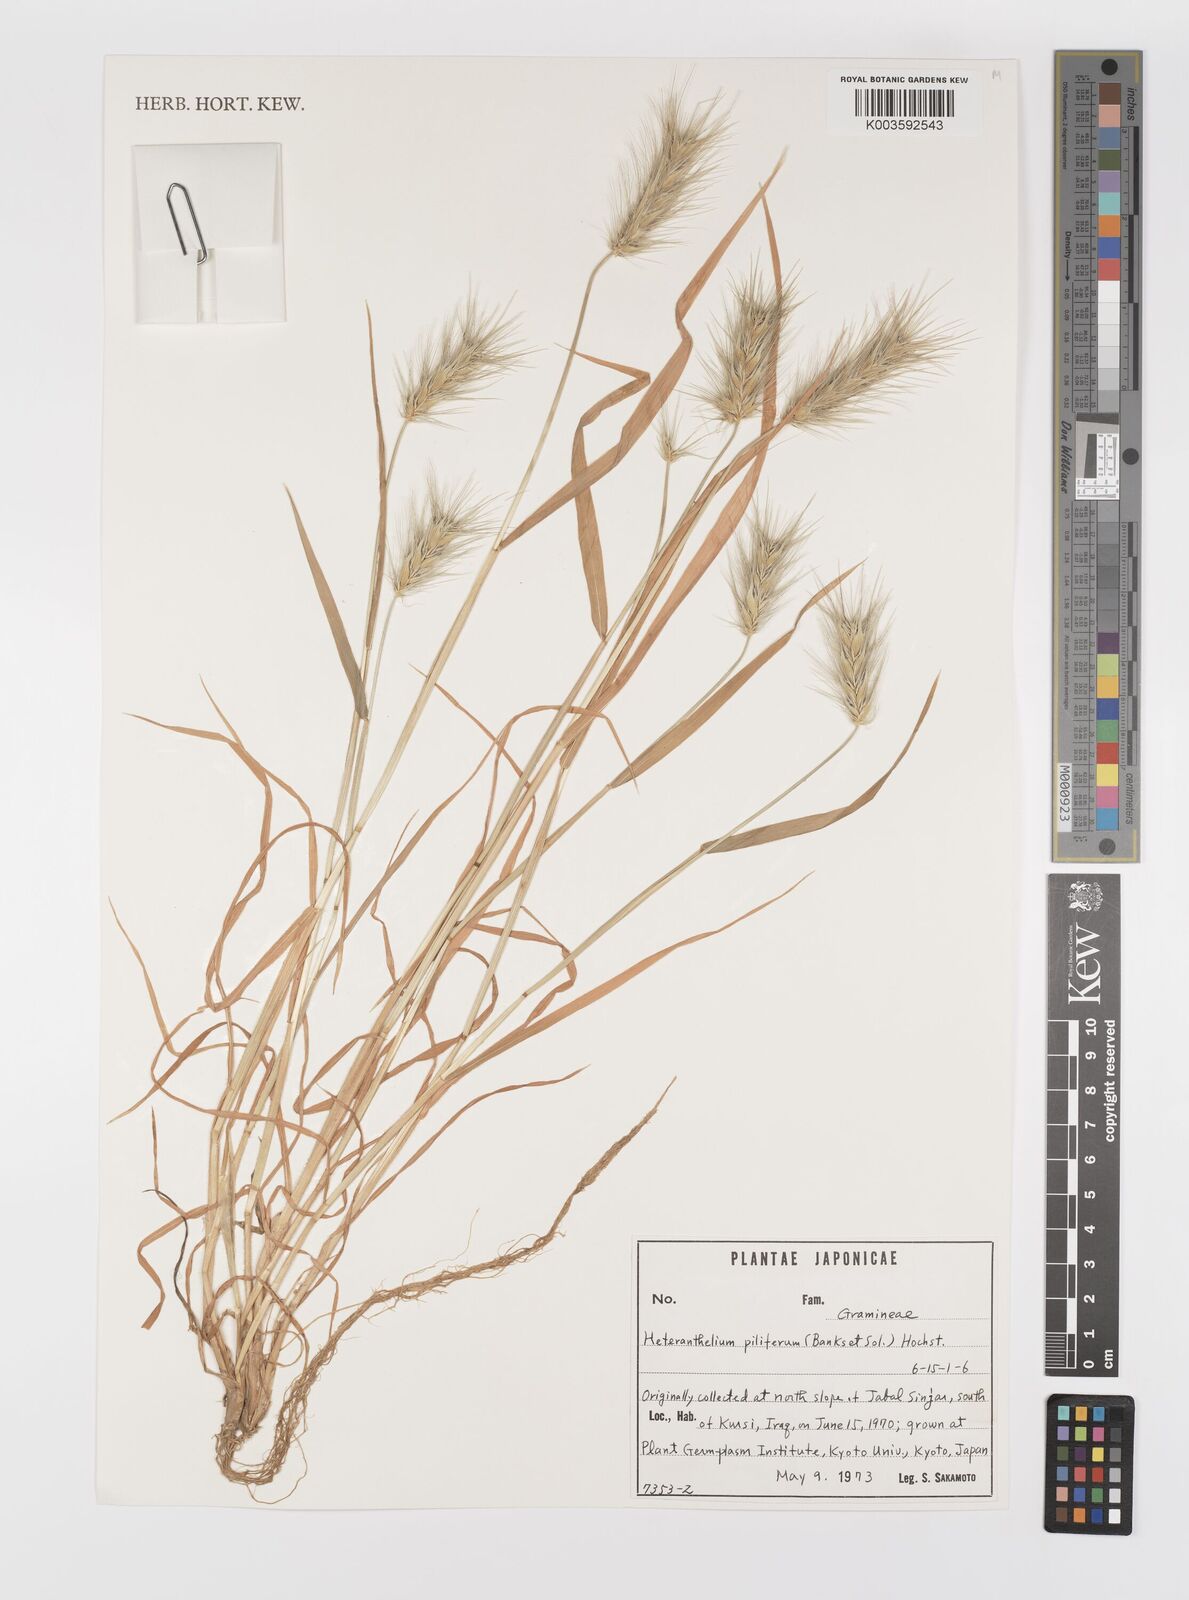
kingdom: Plantae
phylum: Tracheophyta
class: Liliopsida
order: Poales
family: Poaceae
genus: Heteranthelium
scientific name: Heteranthelium piliferum
